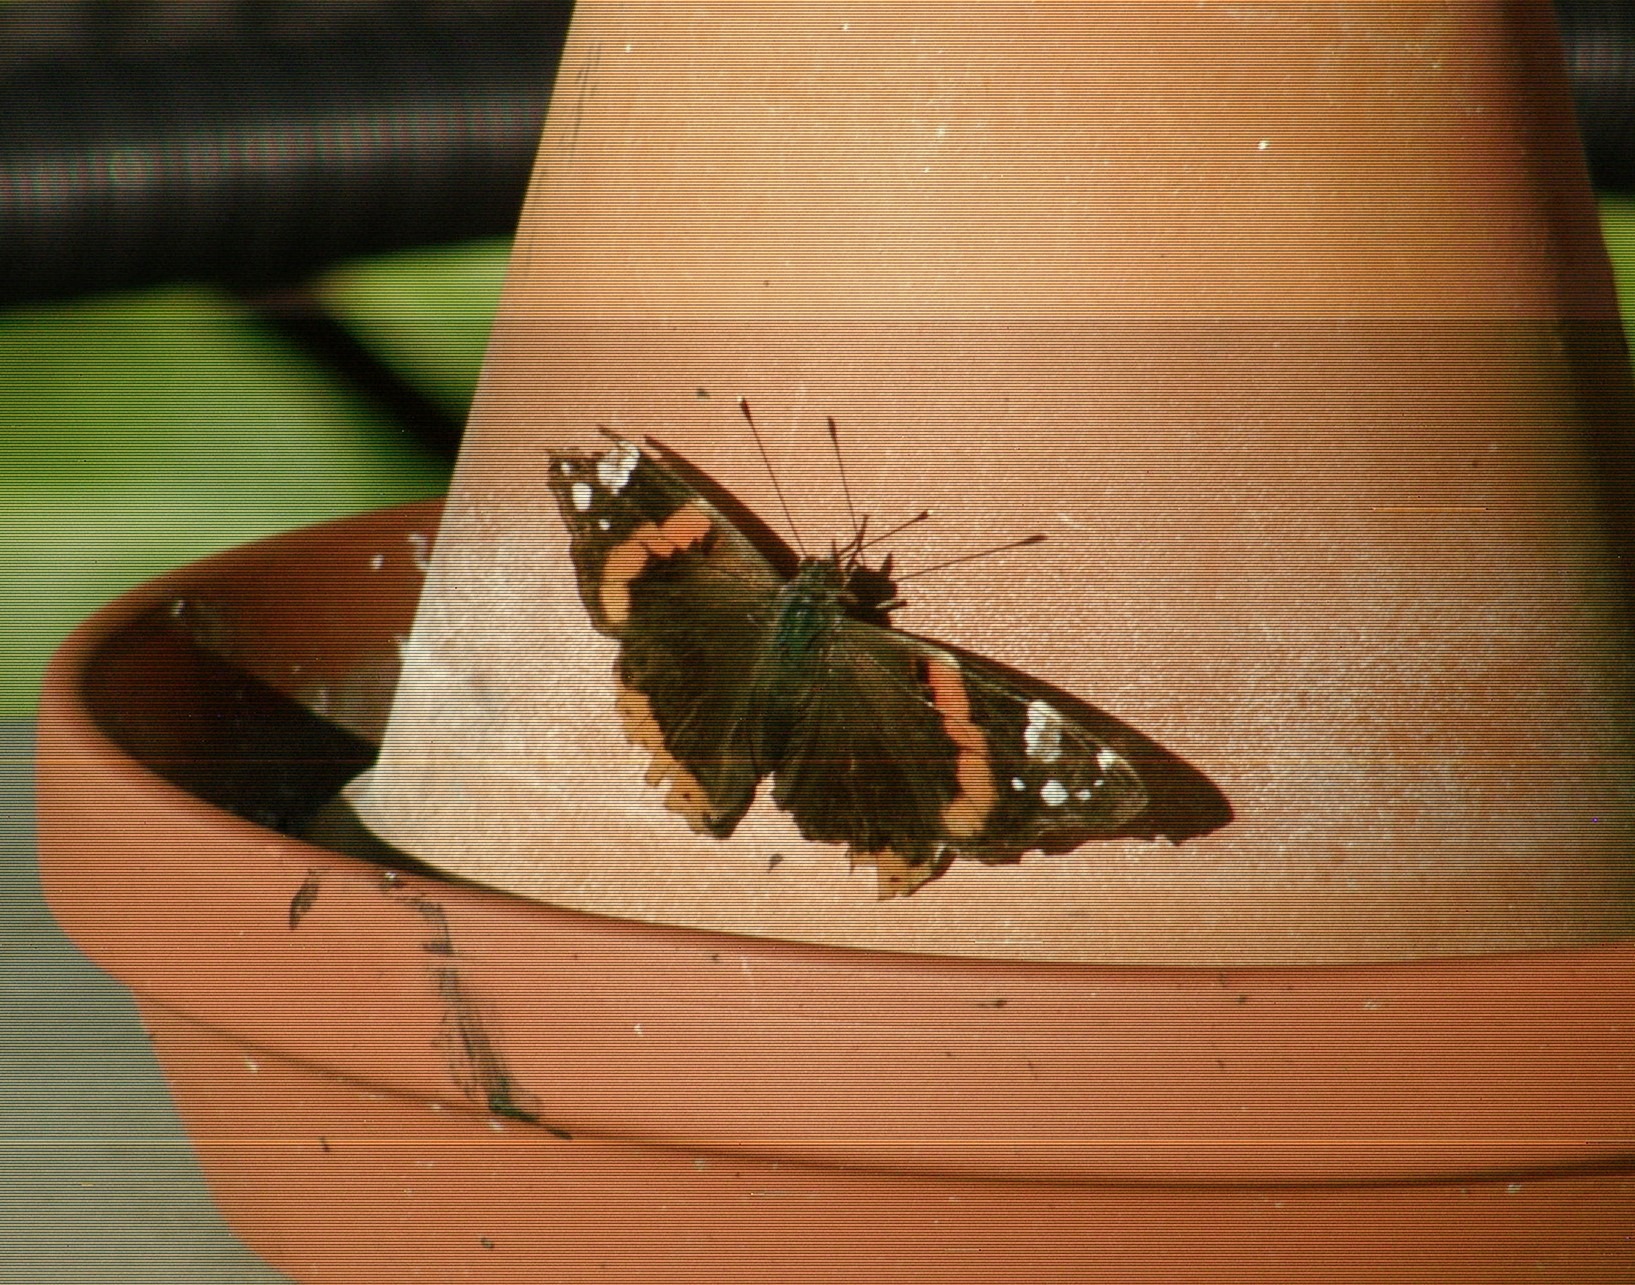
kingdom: Animalia
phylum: Arthropoda
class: Insecta
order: Lepidoptera
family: Nymphalidae
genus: Vanessa
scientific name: Vanessa atalanta
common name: Admiral
